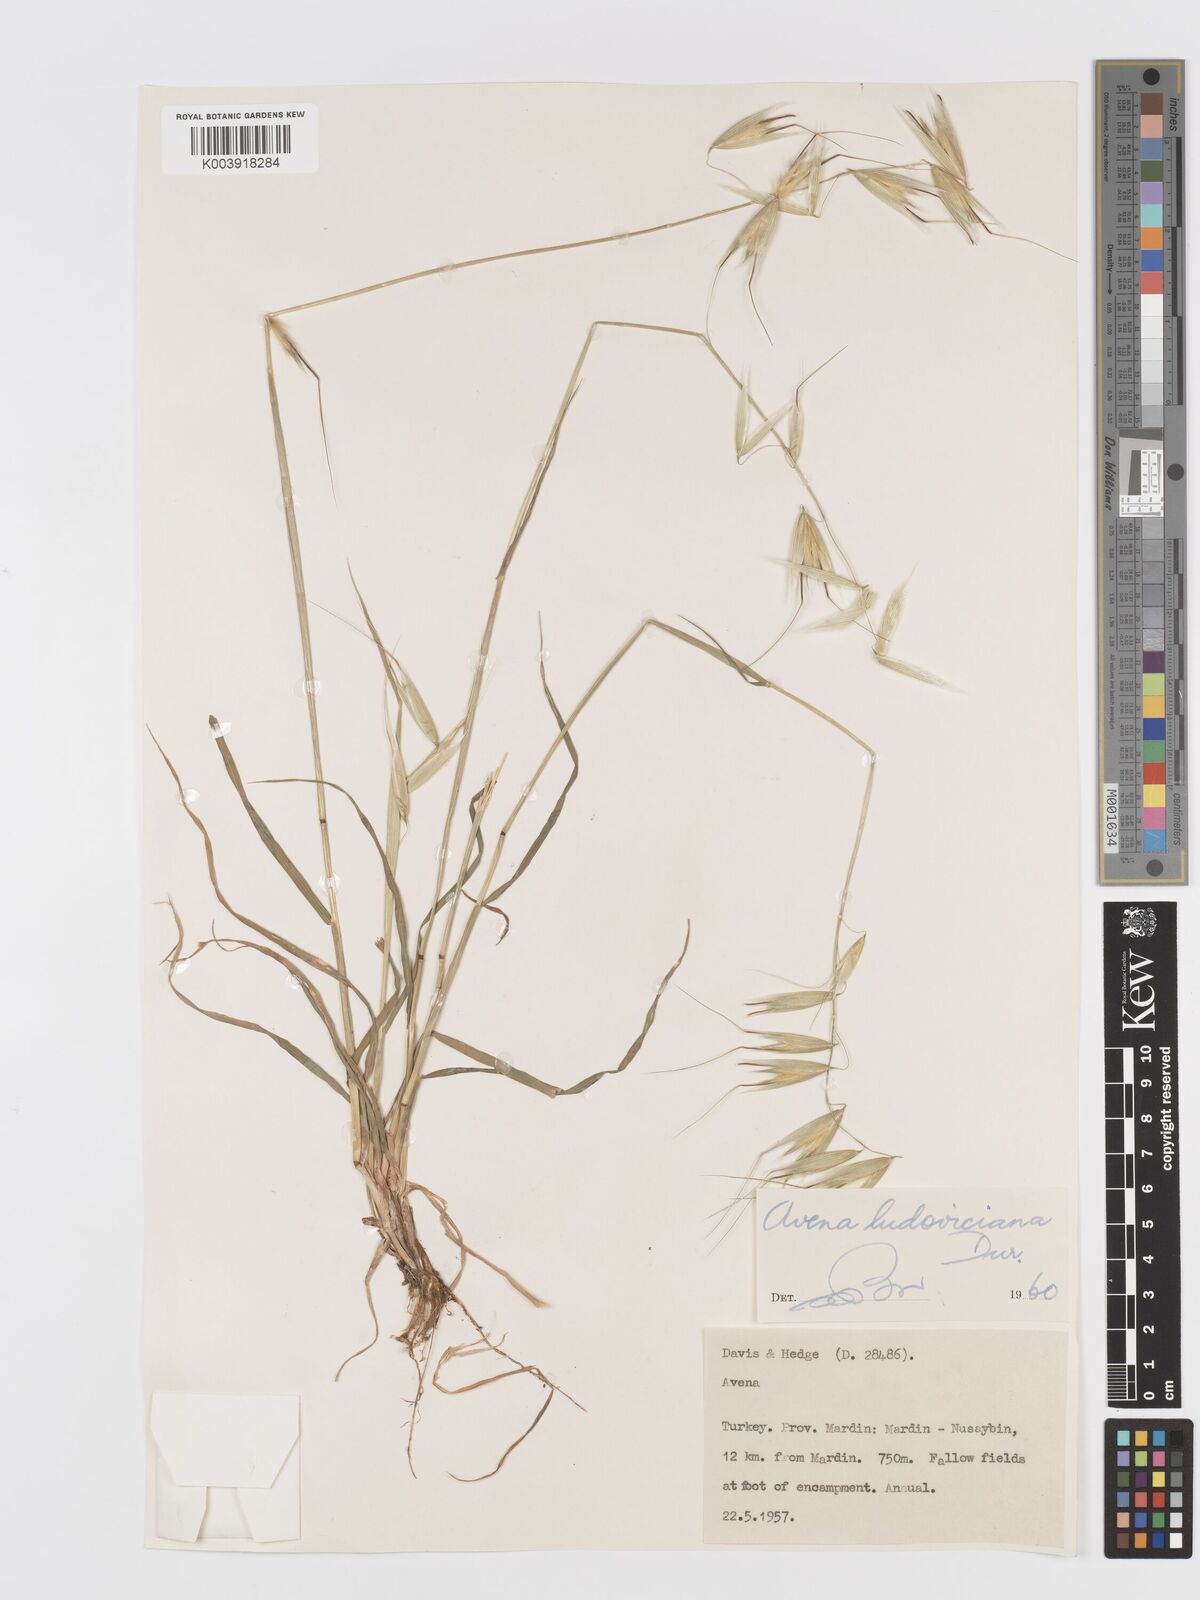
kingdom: Plantae
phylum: Tracheophyta
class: Liliopsida
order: Poales
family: Poaceae
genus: Avena
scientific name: Avena sterilis
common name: Animated oat
